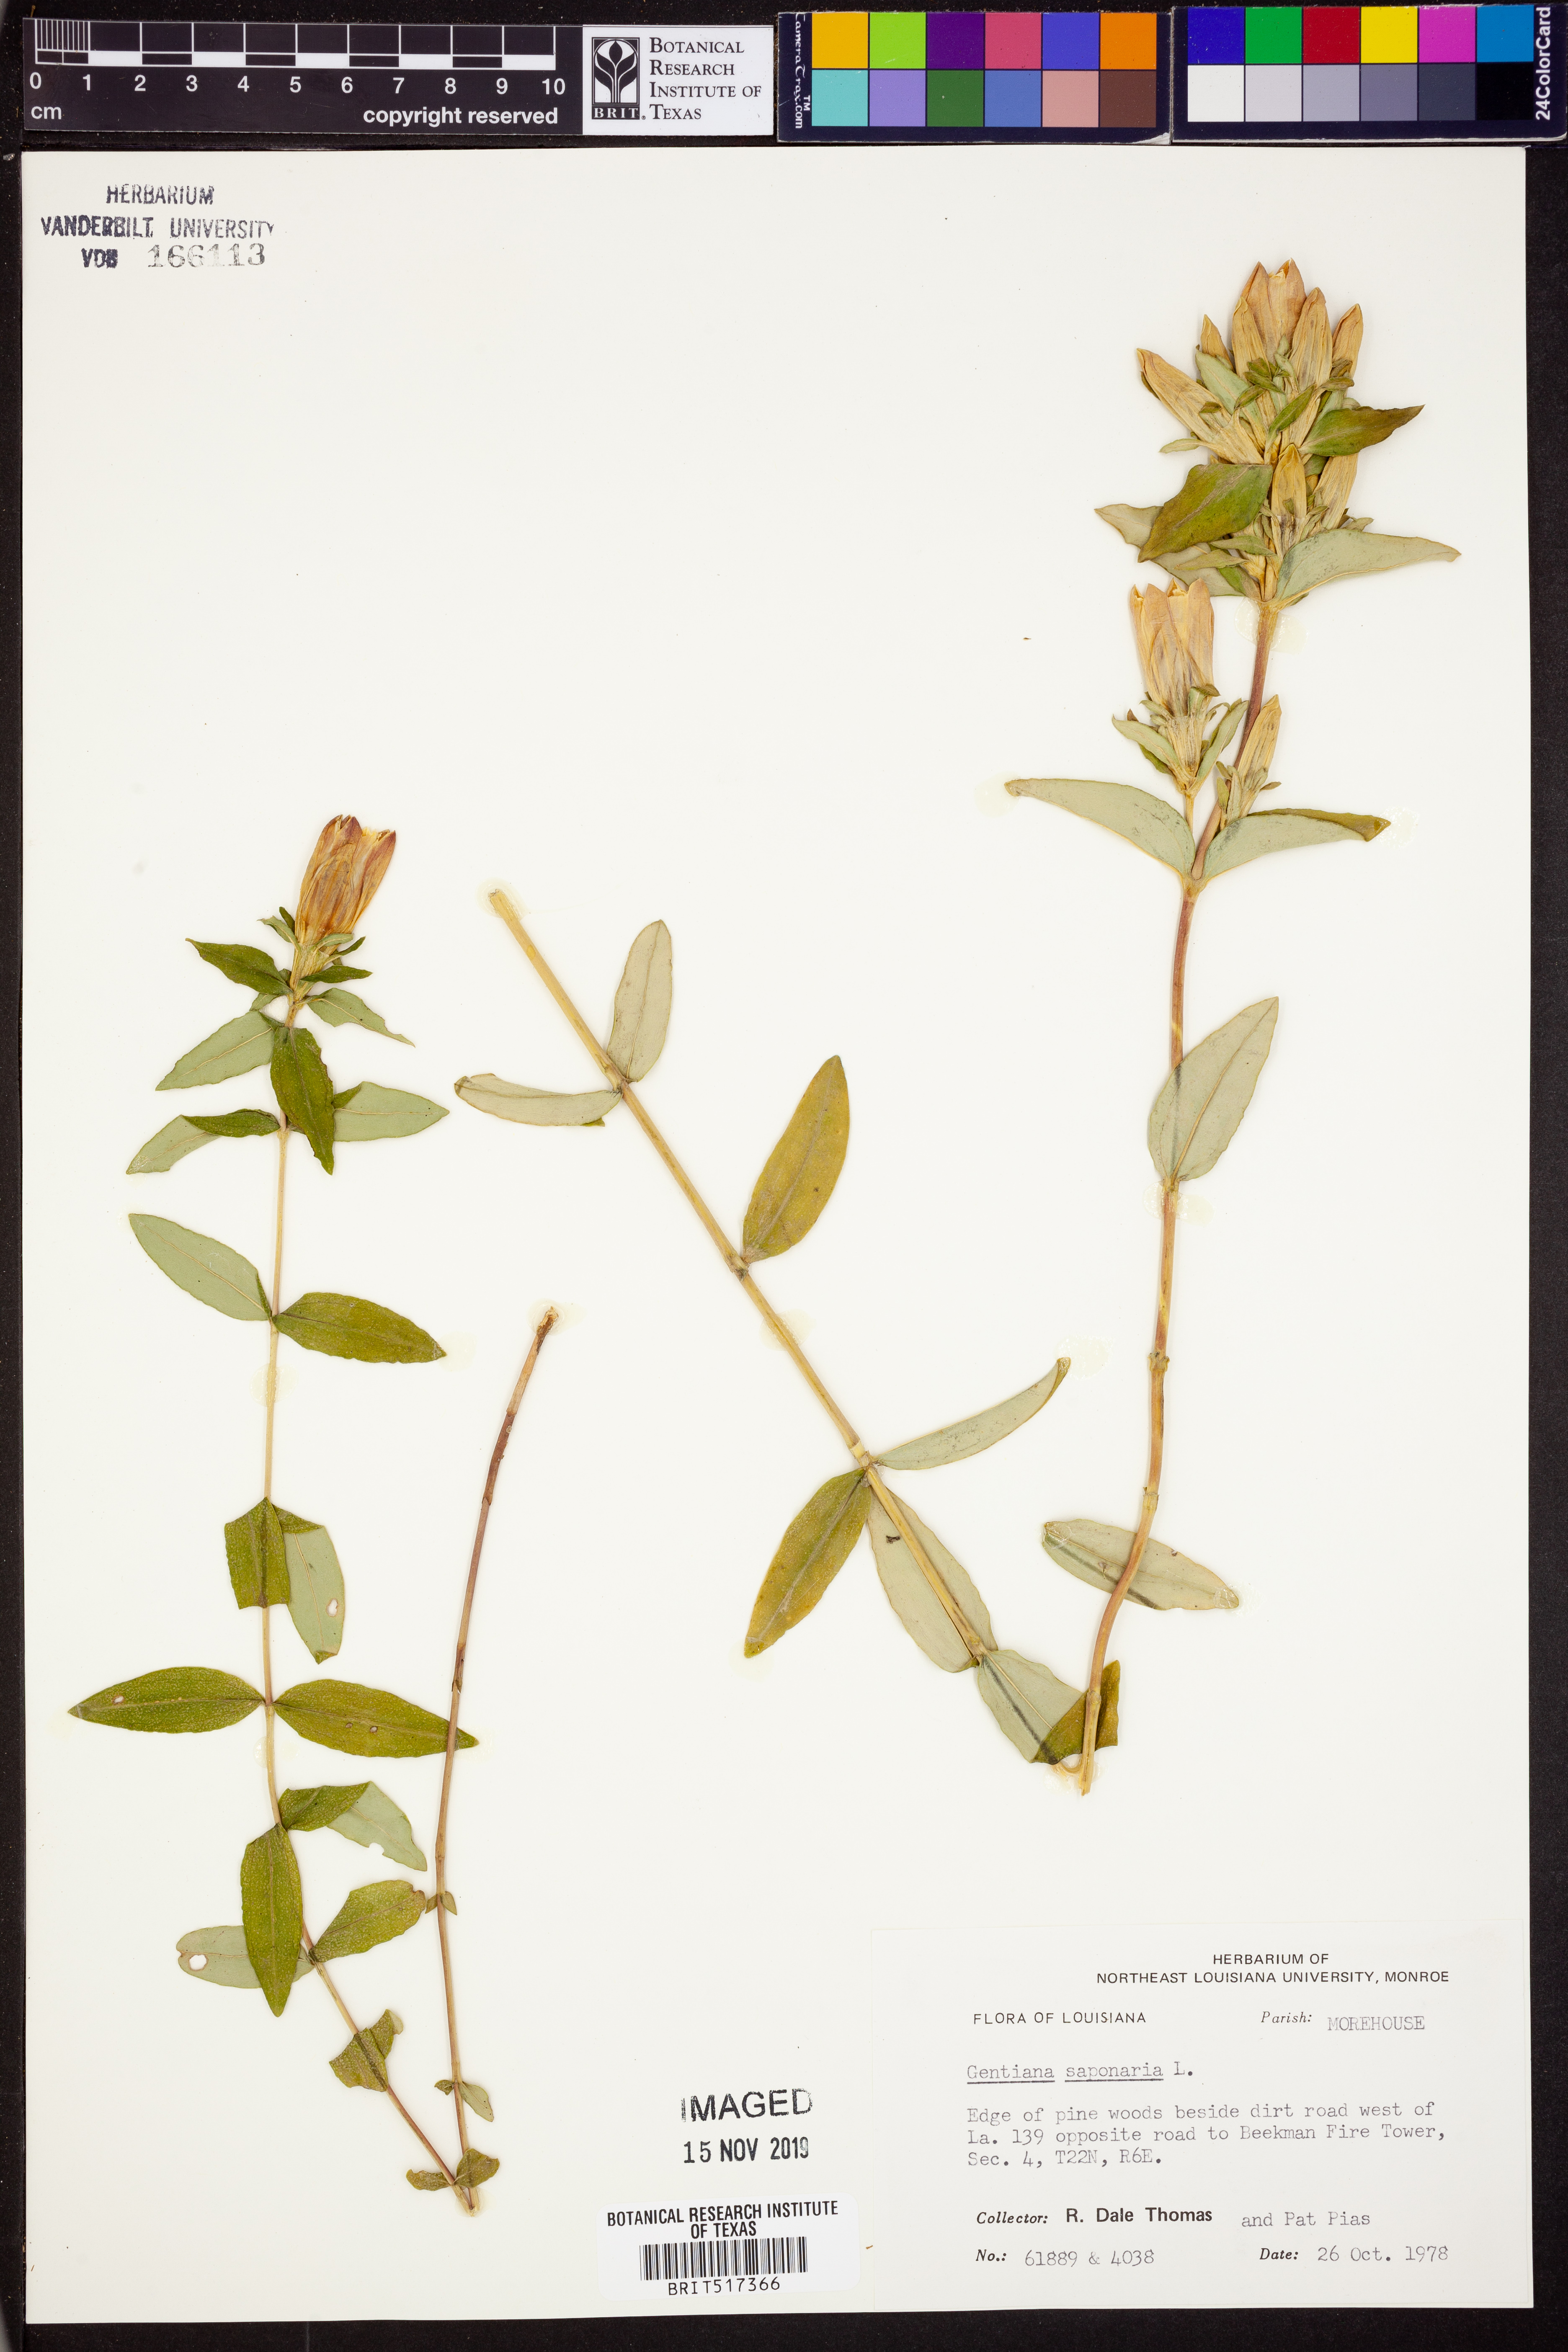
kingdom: Plantae
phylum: Tracheophyta
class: Magnoliopsida
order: Gentianales
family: Gentianaceae
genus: Gentiana
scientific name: Gentiana saponaria
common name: Soapwort gentian
